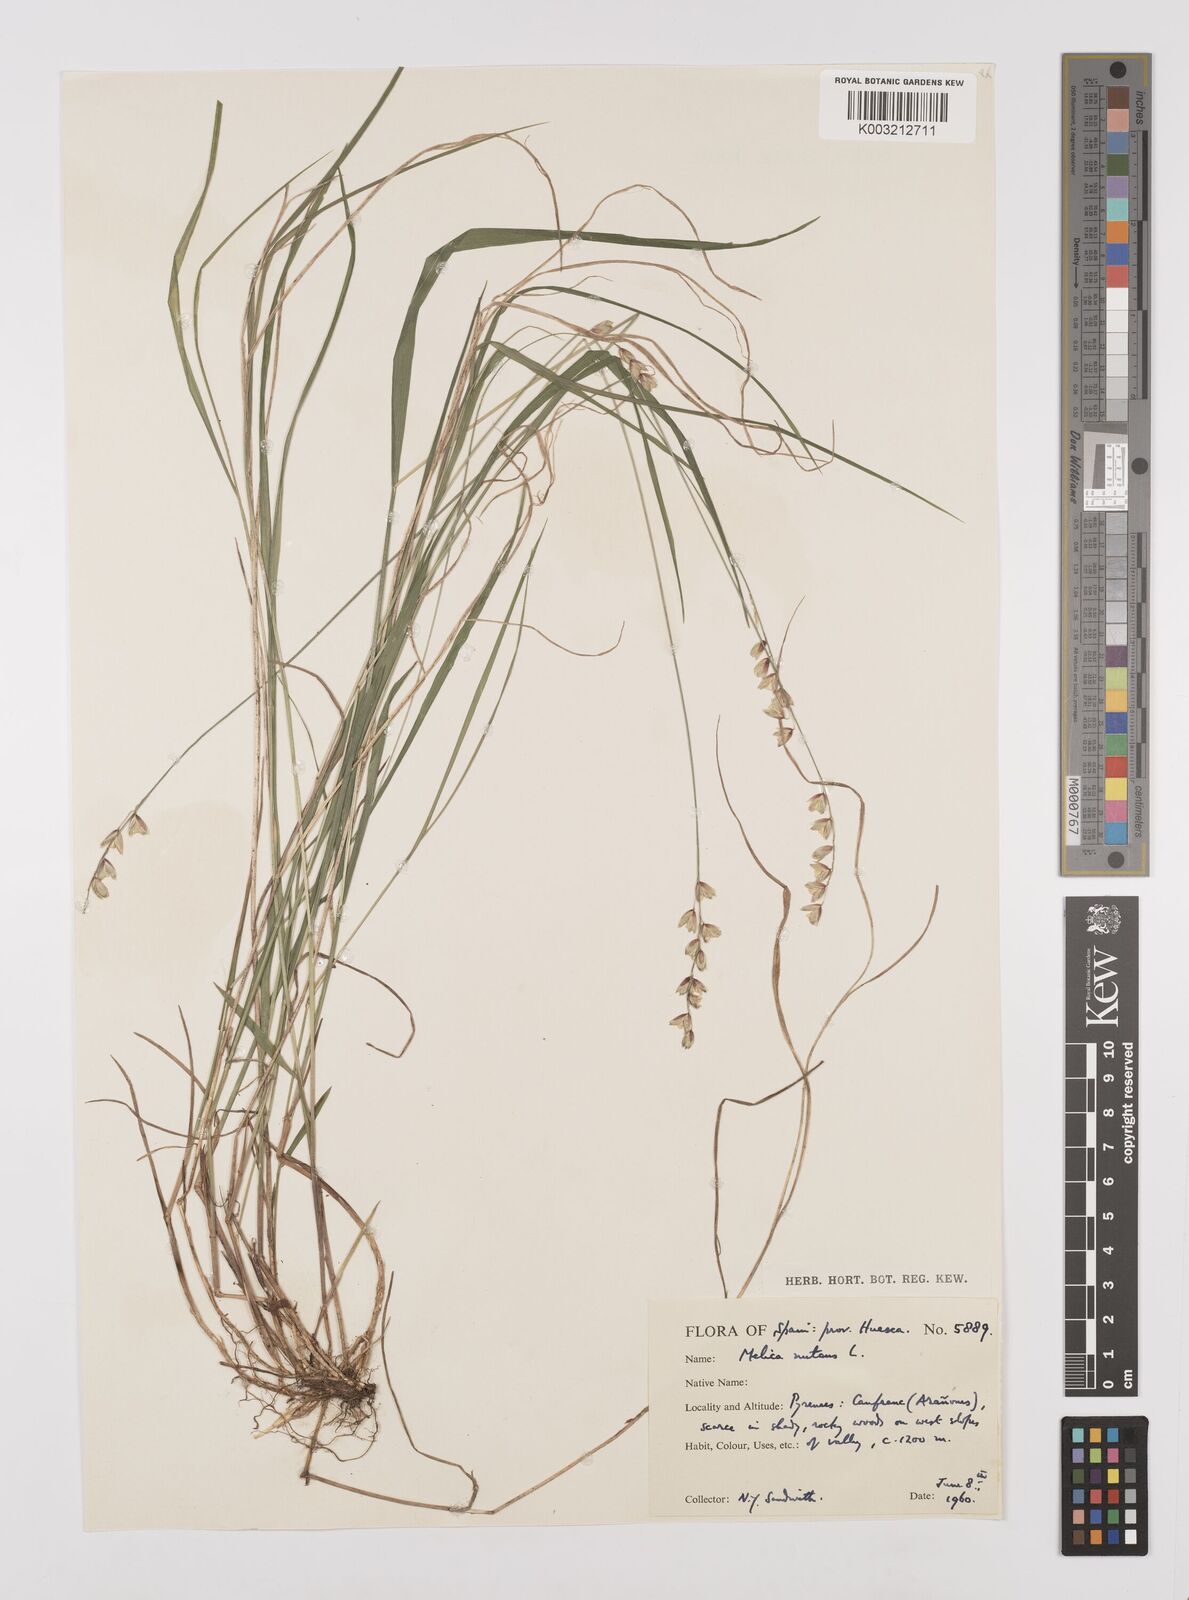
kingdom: Plantae
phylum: Tracheophyta
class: Liliopsida
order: Poales
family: Poaceae
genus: Melica
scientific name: Melica nutans
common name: Mountain melick
